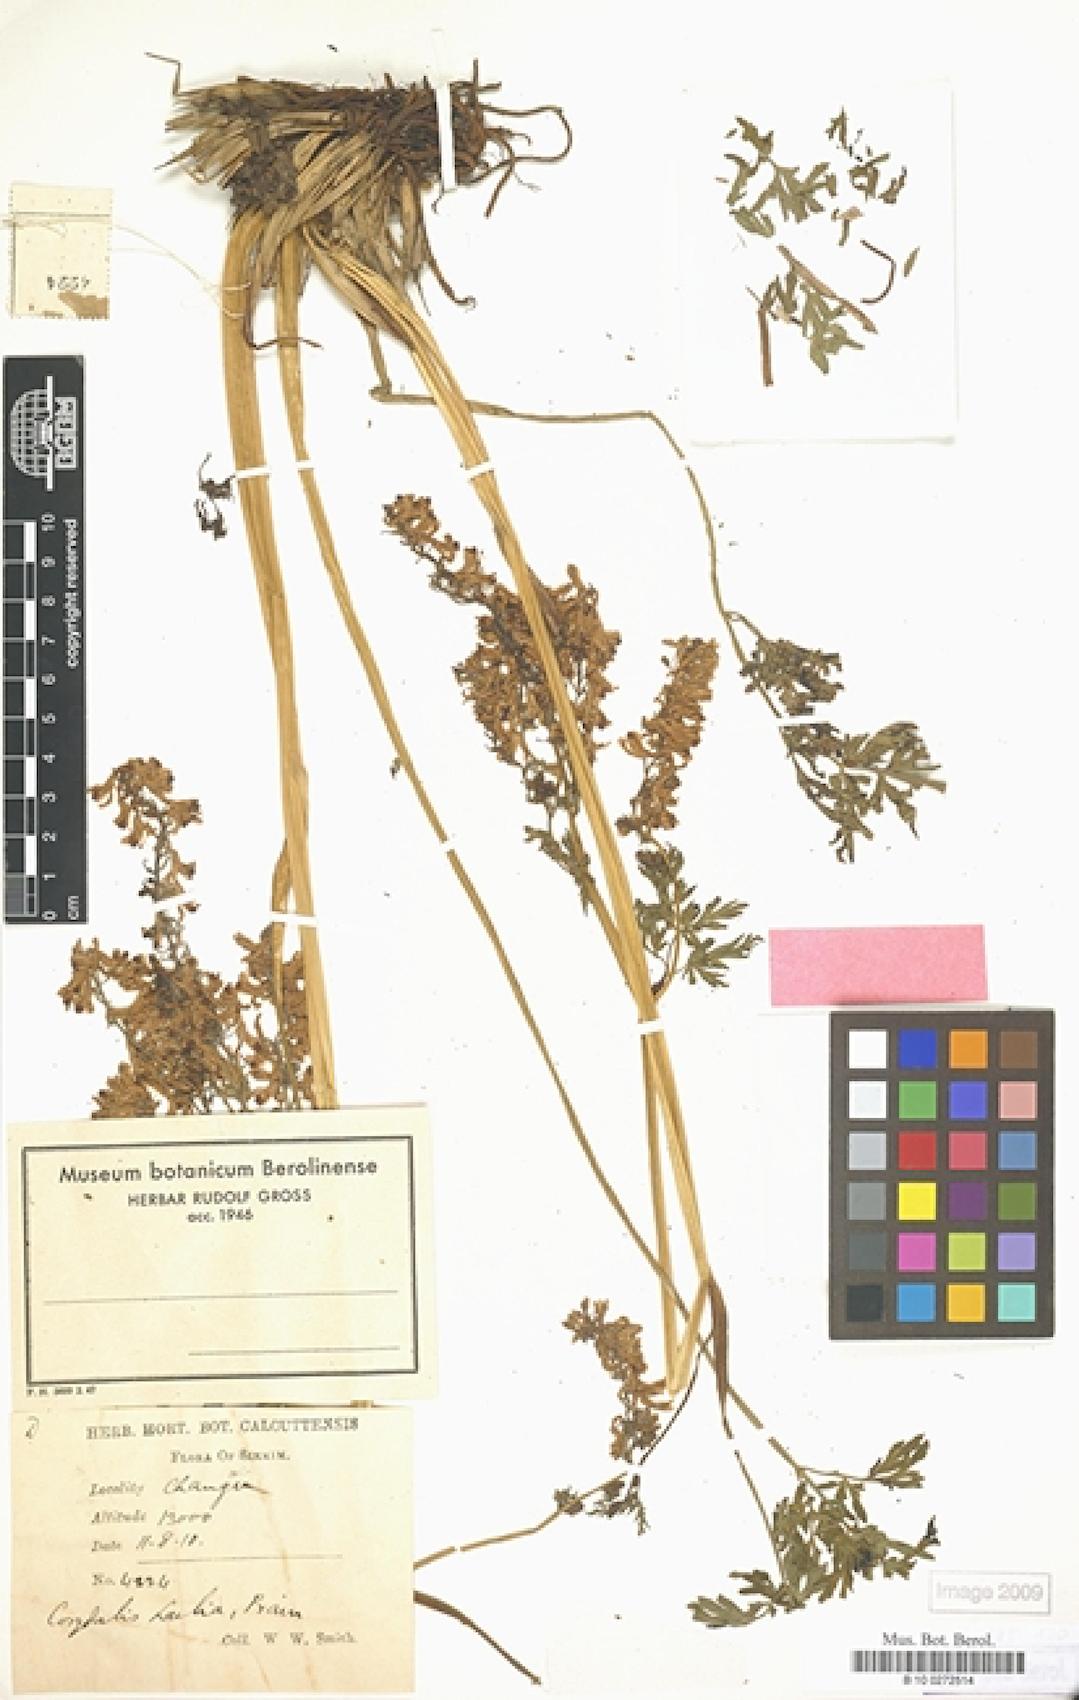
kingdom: Plantae
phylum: Tracheophyta
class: Magnoliopsida
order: Ranunculales
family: Papaveraceae
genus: Corydalis
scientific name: Corydalis laelia
